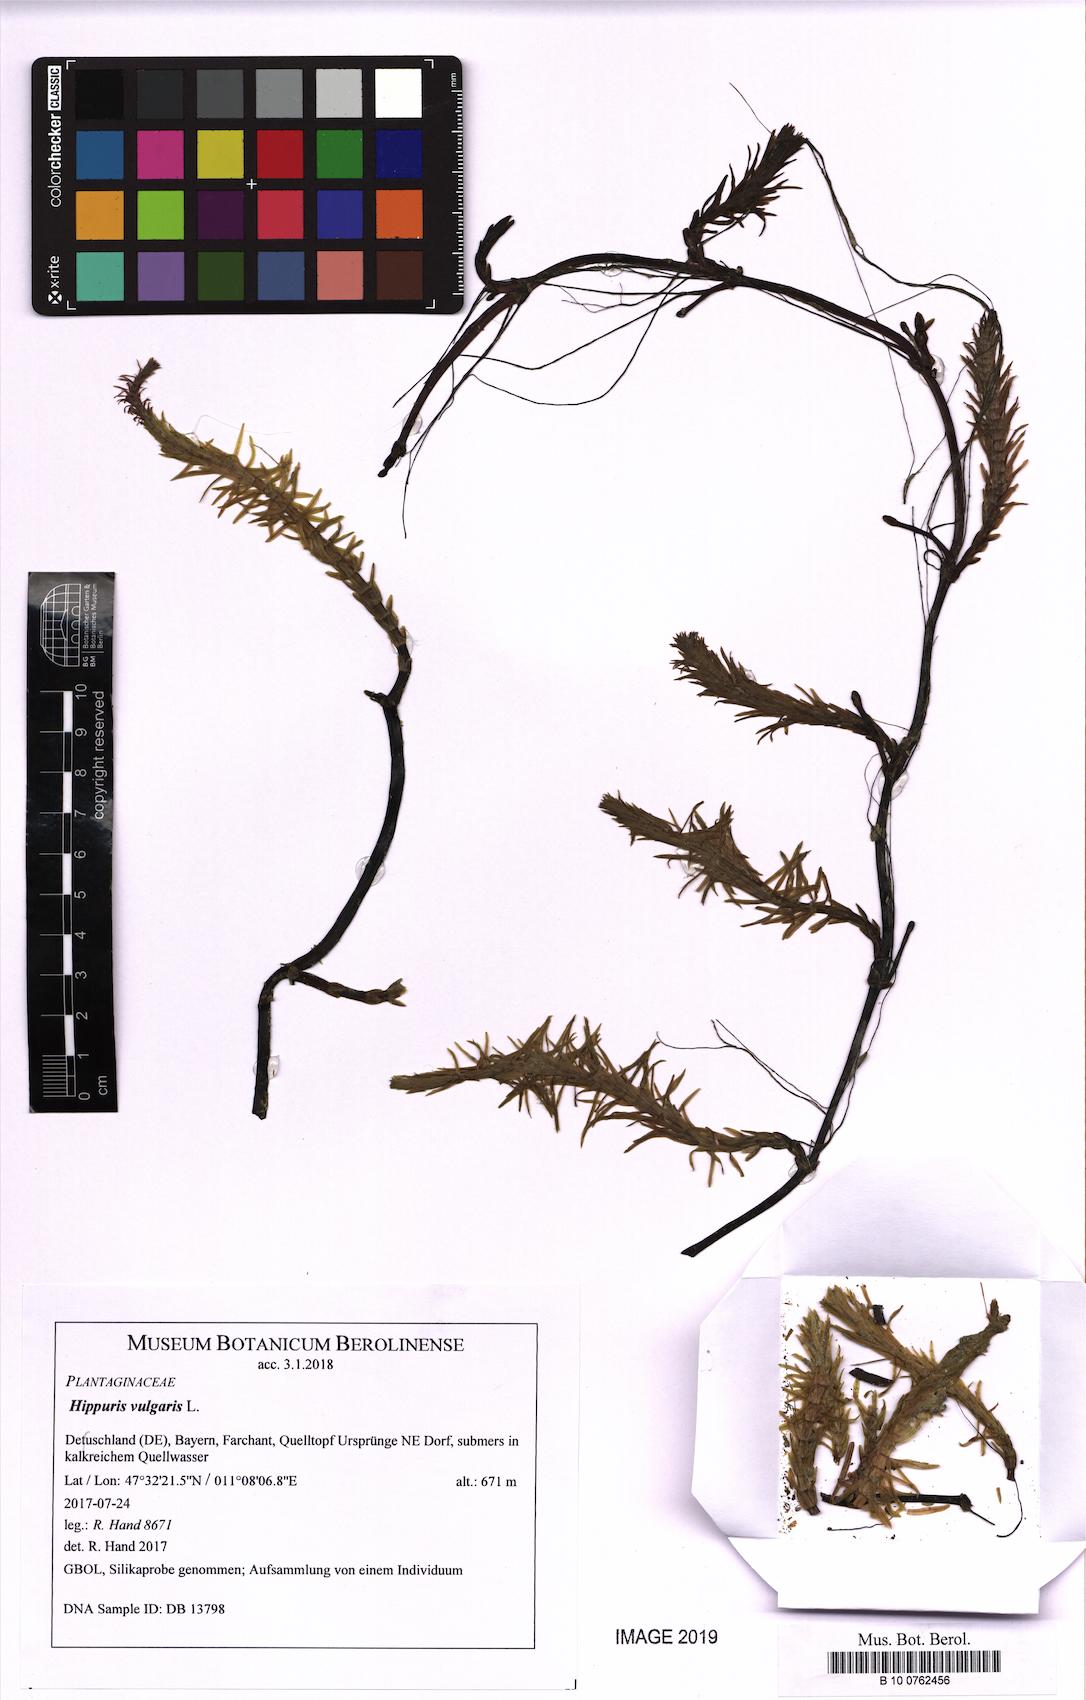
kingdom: Plantae
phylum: Tracheophyta
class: Magnoliopsida
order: Lamiales
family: Plantaginaceae
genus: Hippuris
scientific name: Hippuris vulgaris
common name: Mare's-tail
